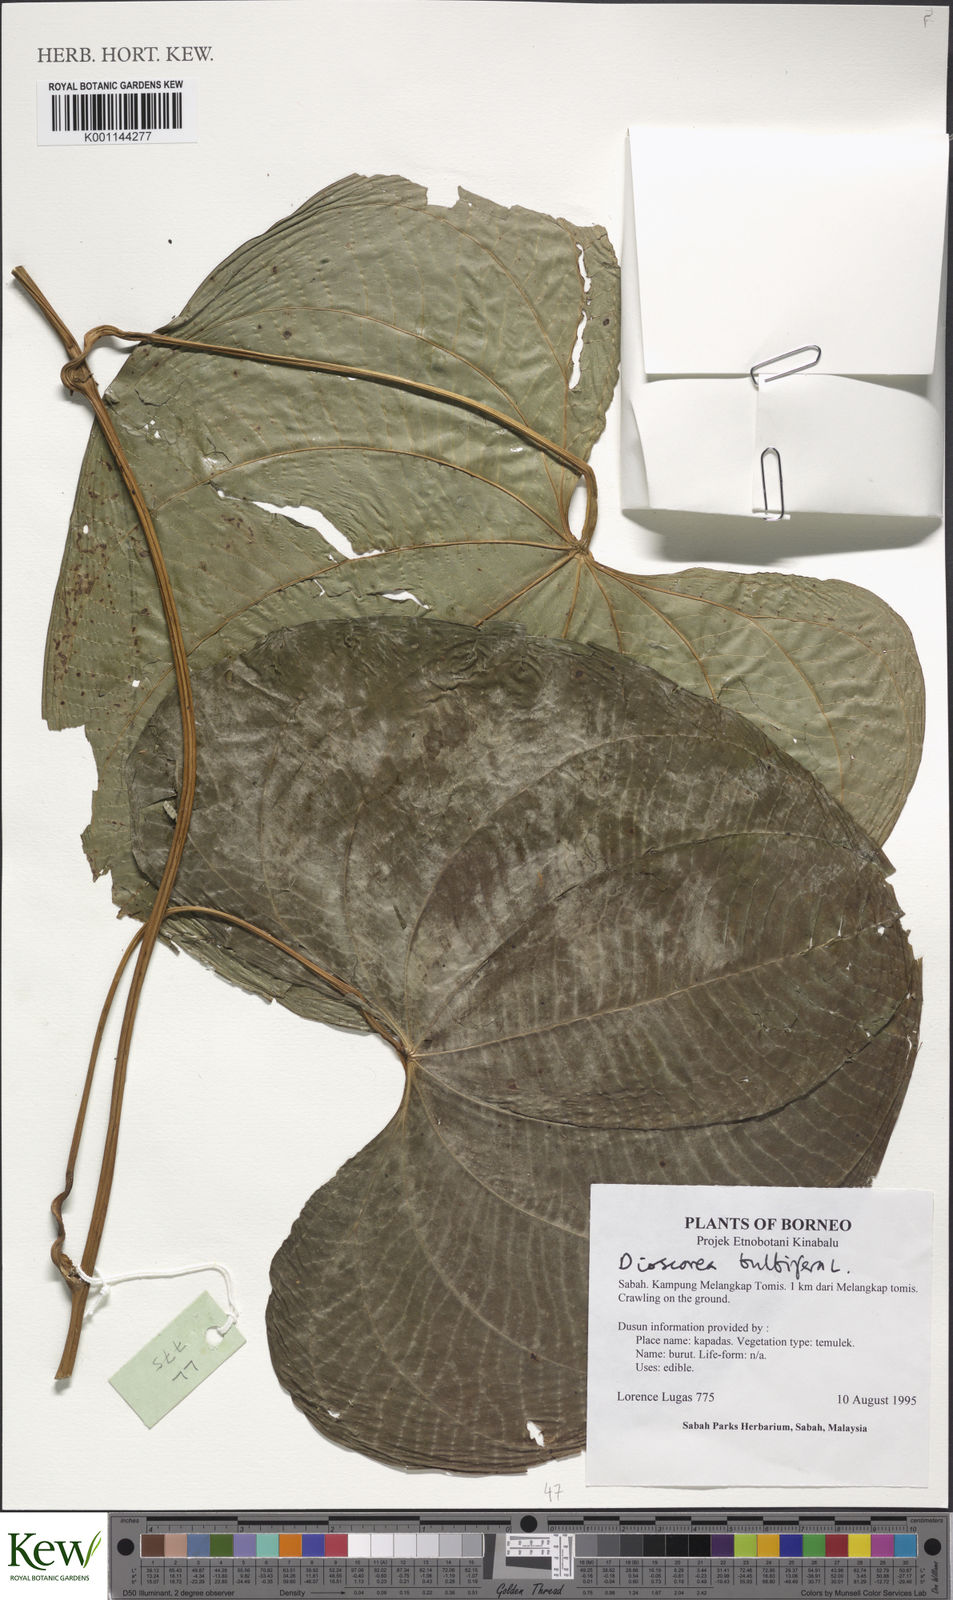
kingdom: Plantae
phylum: Tracheophyta
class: Liliopsida
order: Dioscoreales
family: Dioscoreaceae
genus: Dioscorea
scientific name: Dioscorea bulbifera
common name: Air yam
